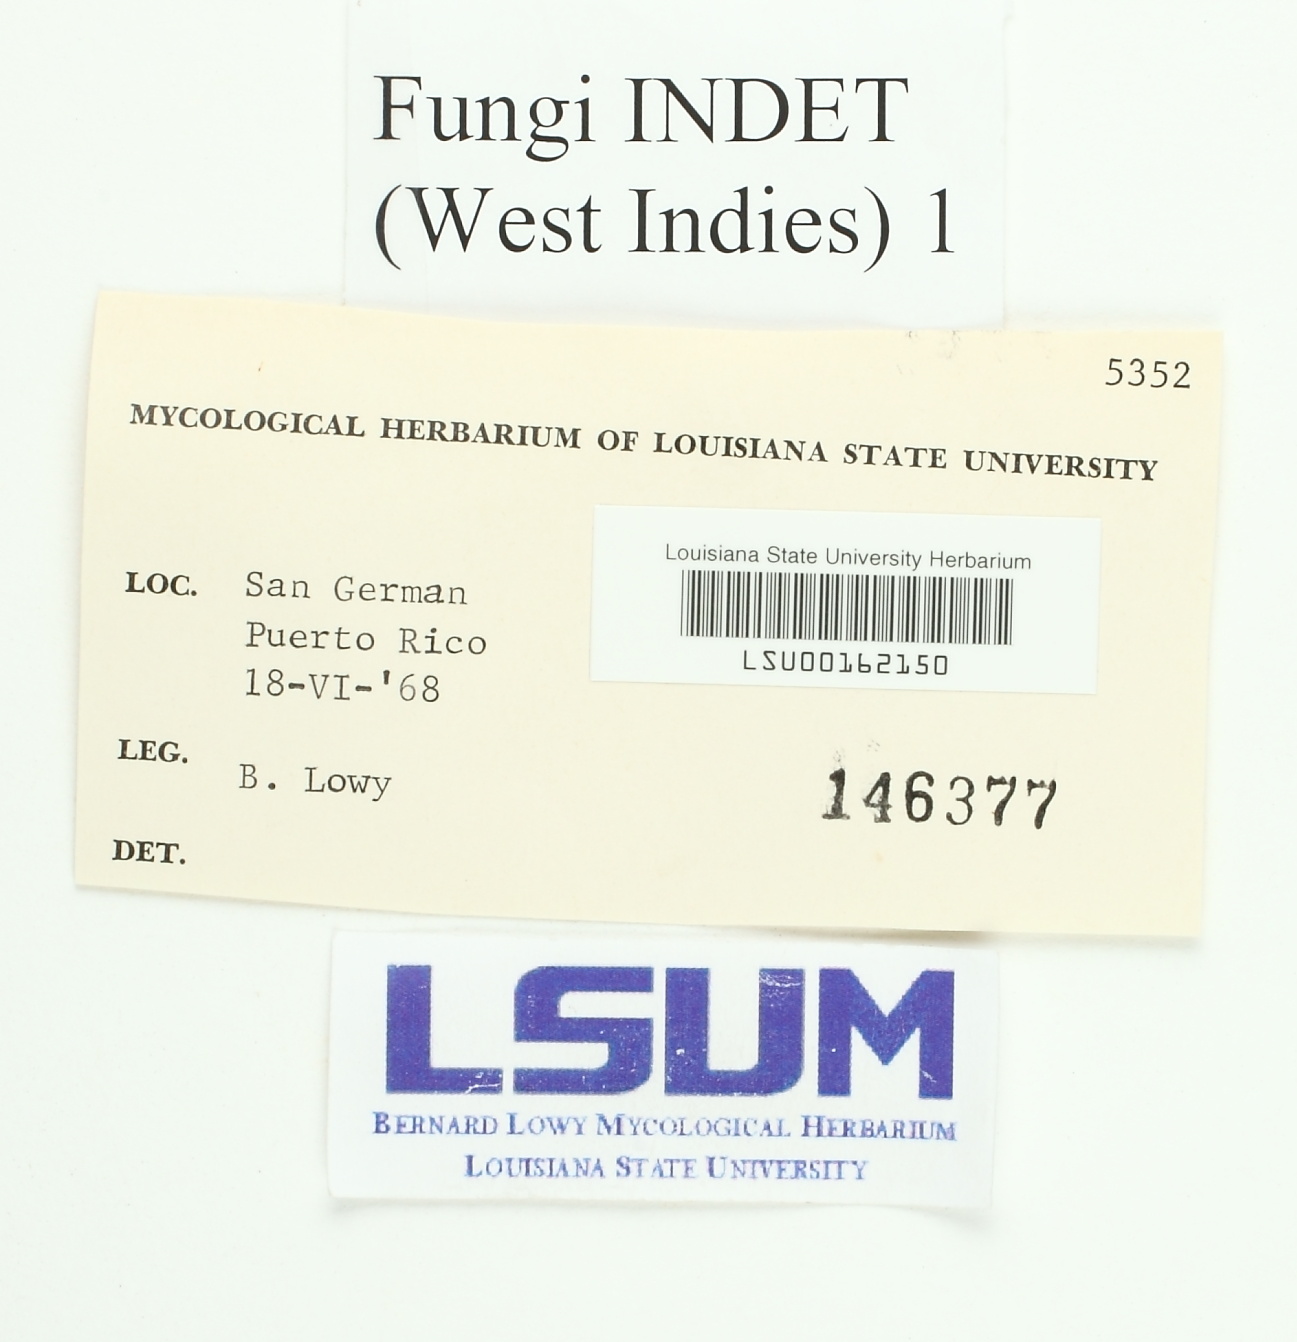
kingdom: Fungi
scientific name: Fungi
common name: Fungi
